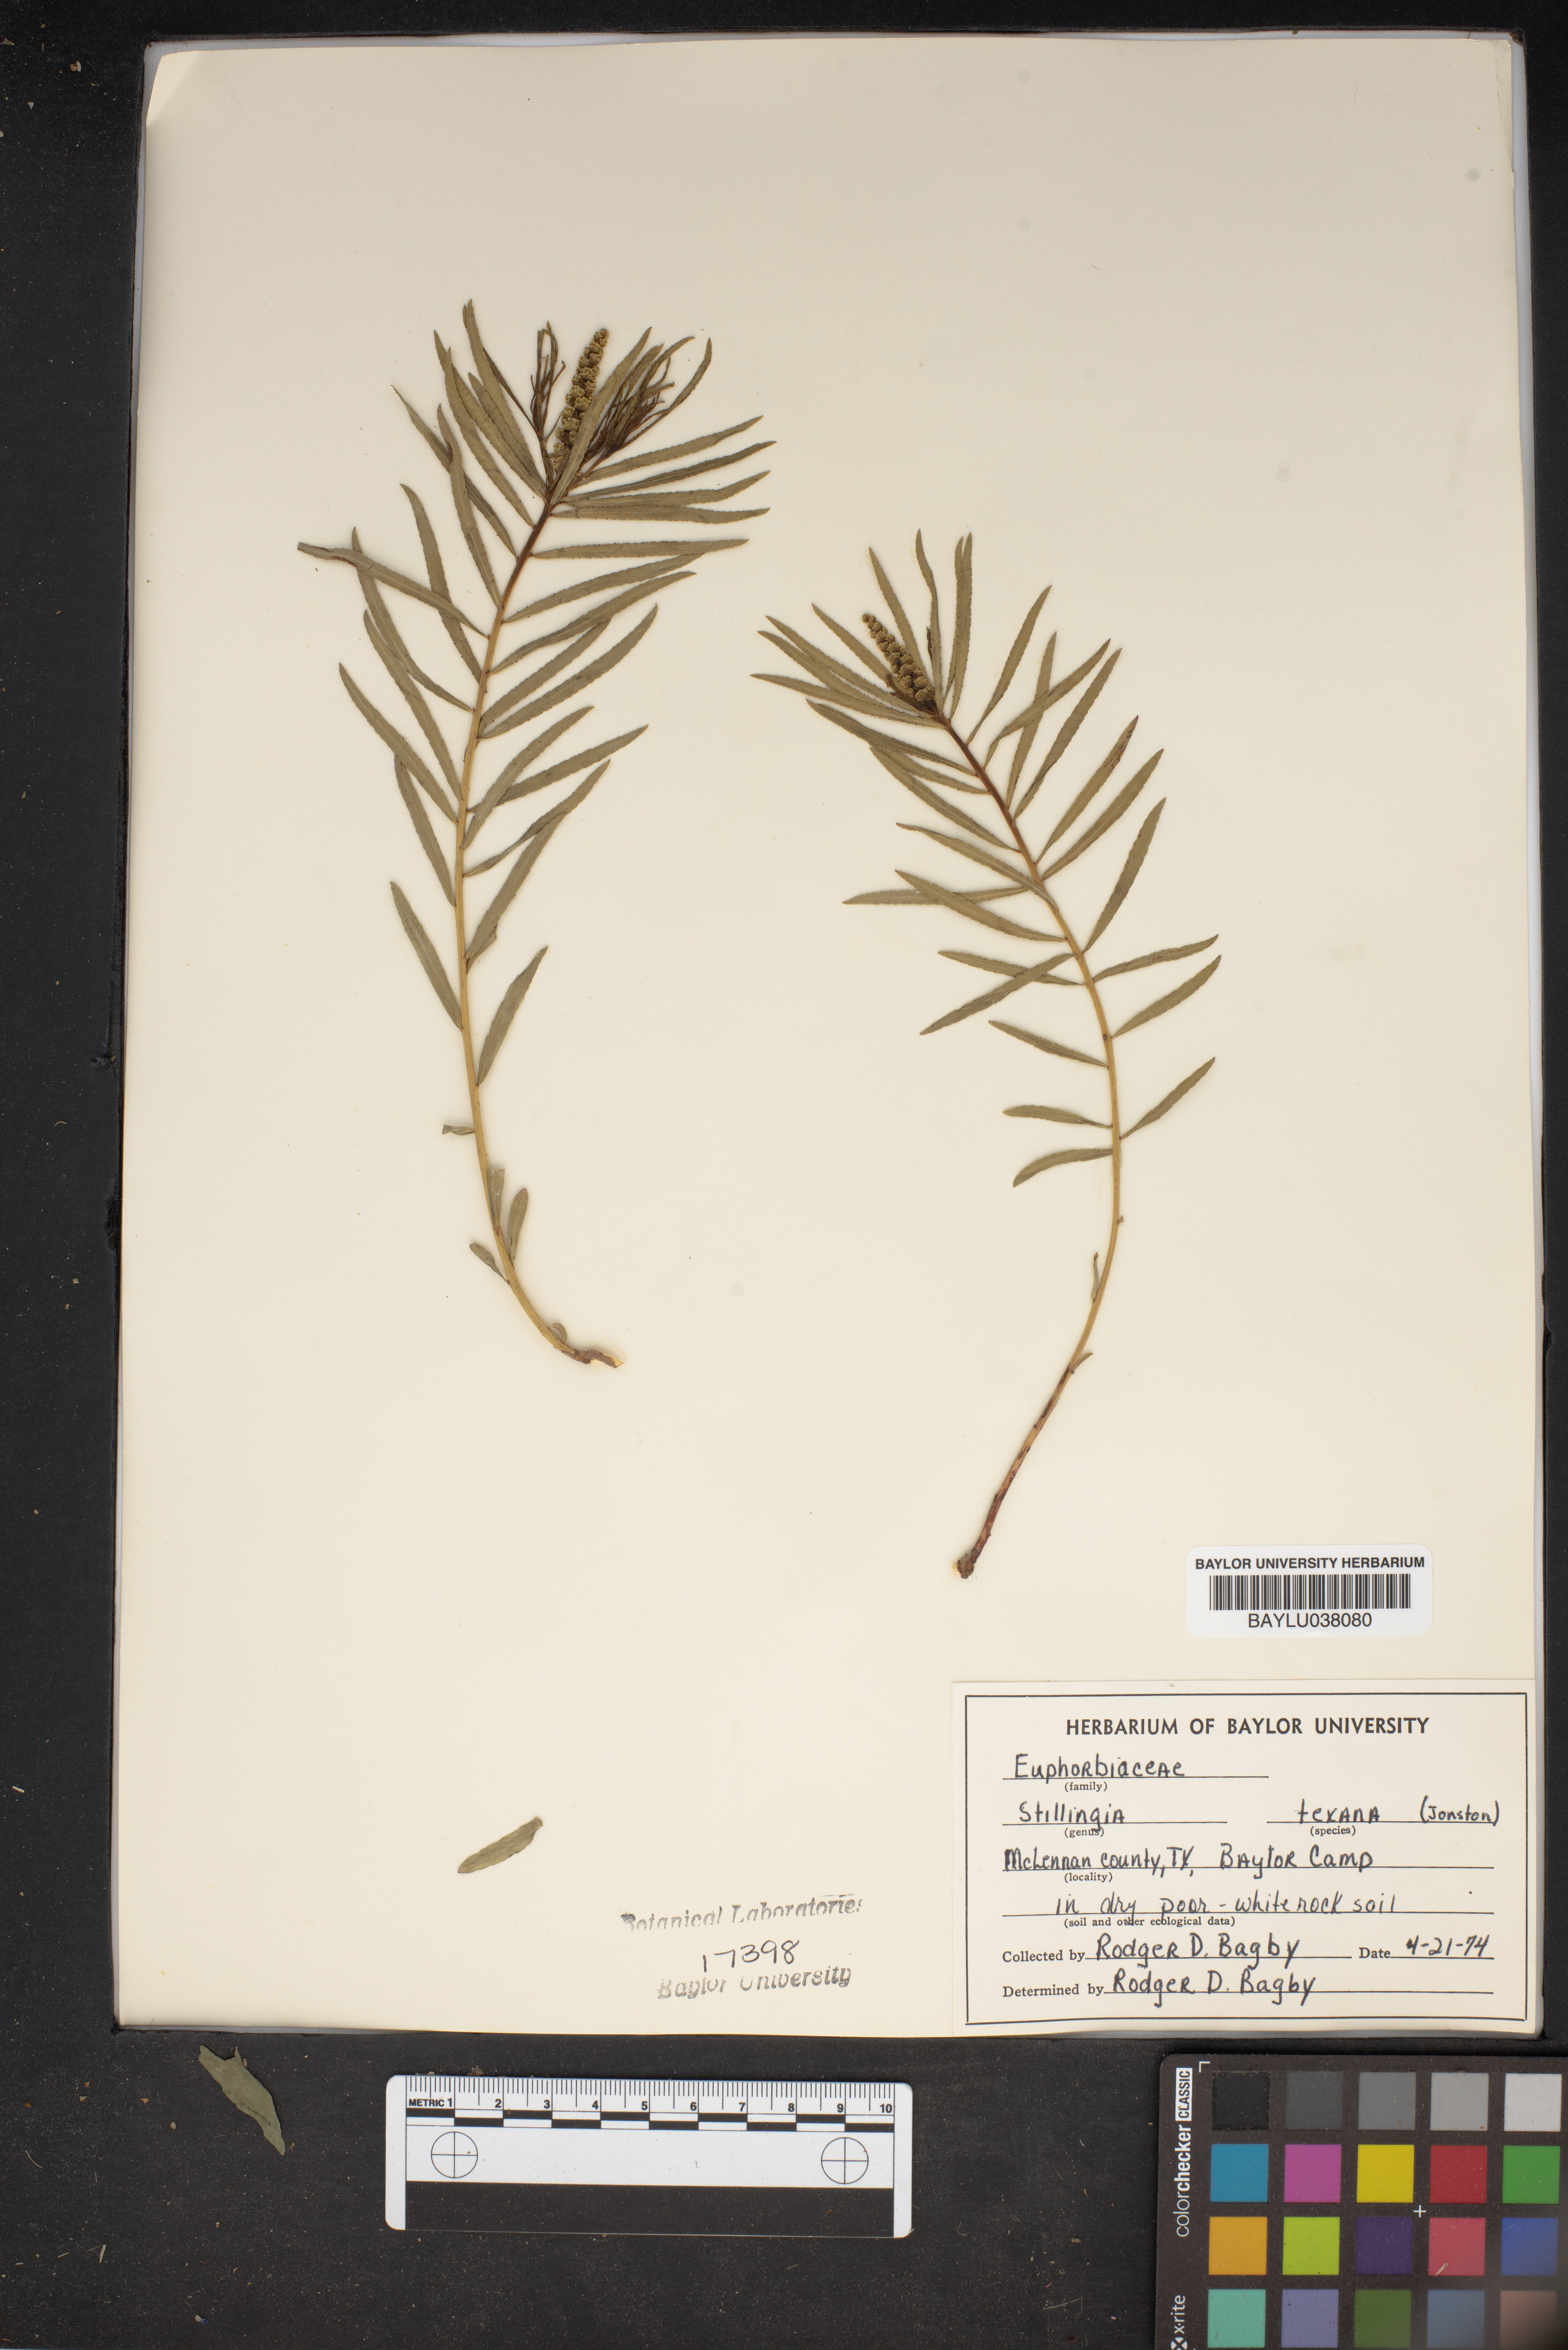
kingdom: Plantae
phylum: Tracheophyta
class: Magnoliopsida
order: Malpighiales
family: Euphorbiaceae
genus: Stillingia
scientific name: Stillingia texana
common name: Texas stillingia
